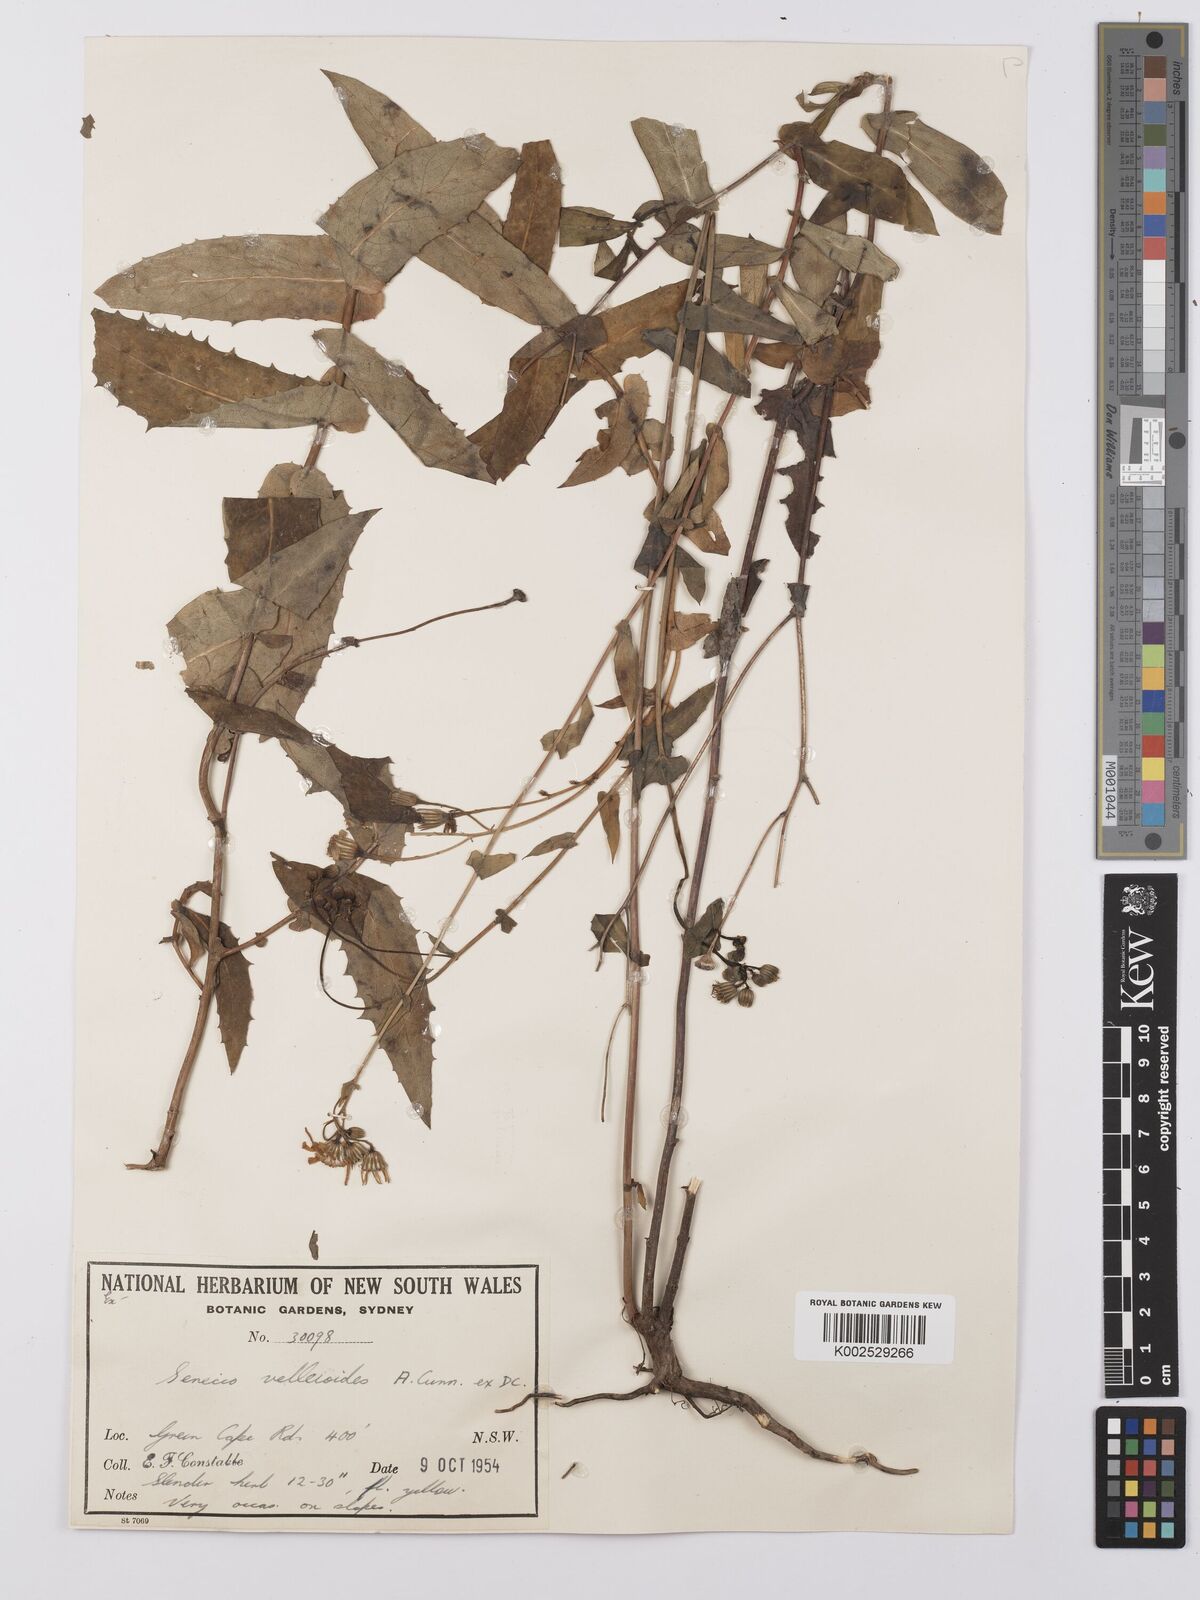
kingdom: Plantae
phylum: Tracheophyta
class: Magnoliopsida
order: Asterales
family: Asteraceae
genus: Lordhowea
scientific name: Lordhowea velleioides
